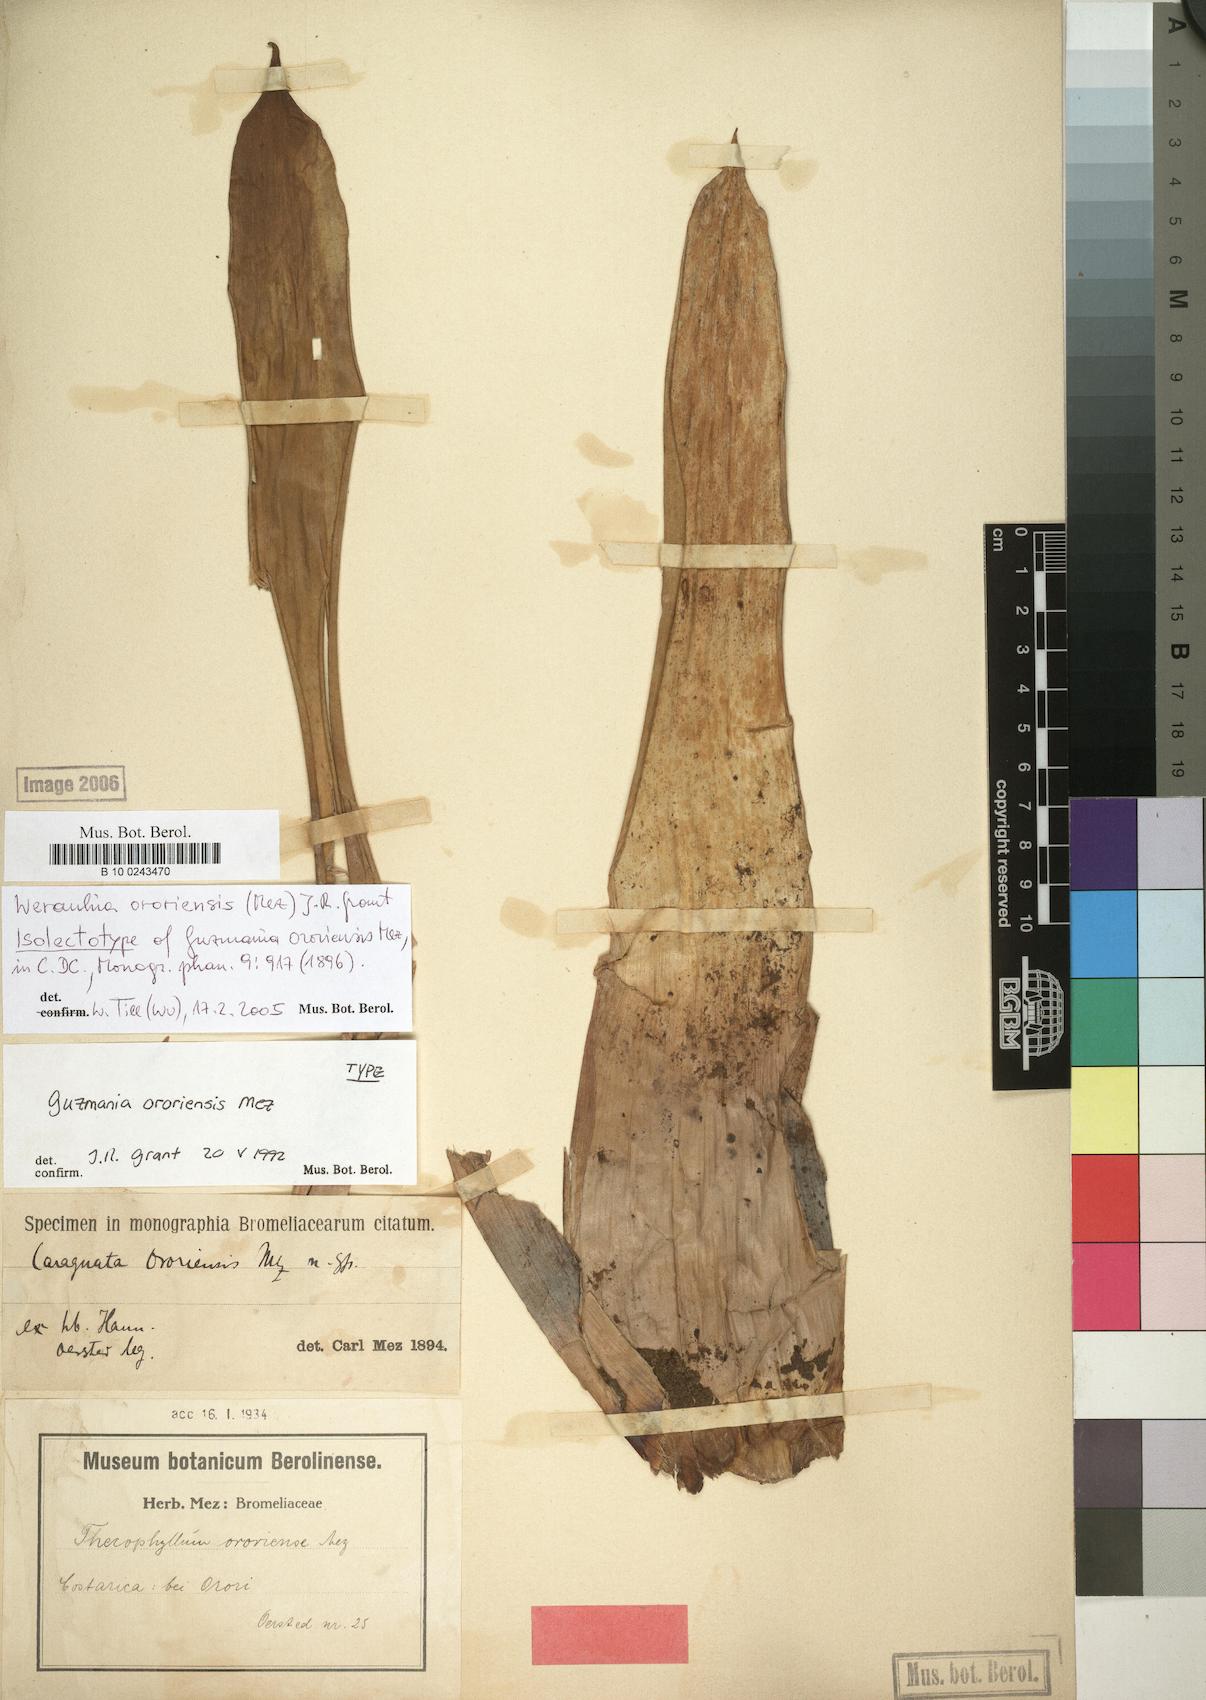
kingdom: Plantae
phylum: Tracheophyta
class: Liliopsida
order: Poales
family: Bromeliaceae
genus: Werauhia
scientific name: Werauhia ororiensis
